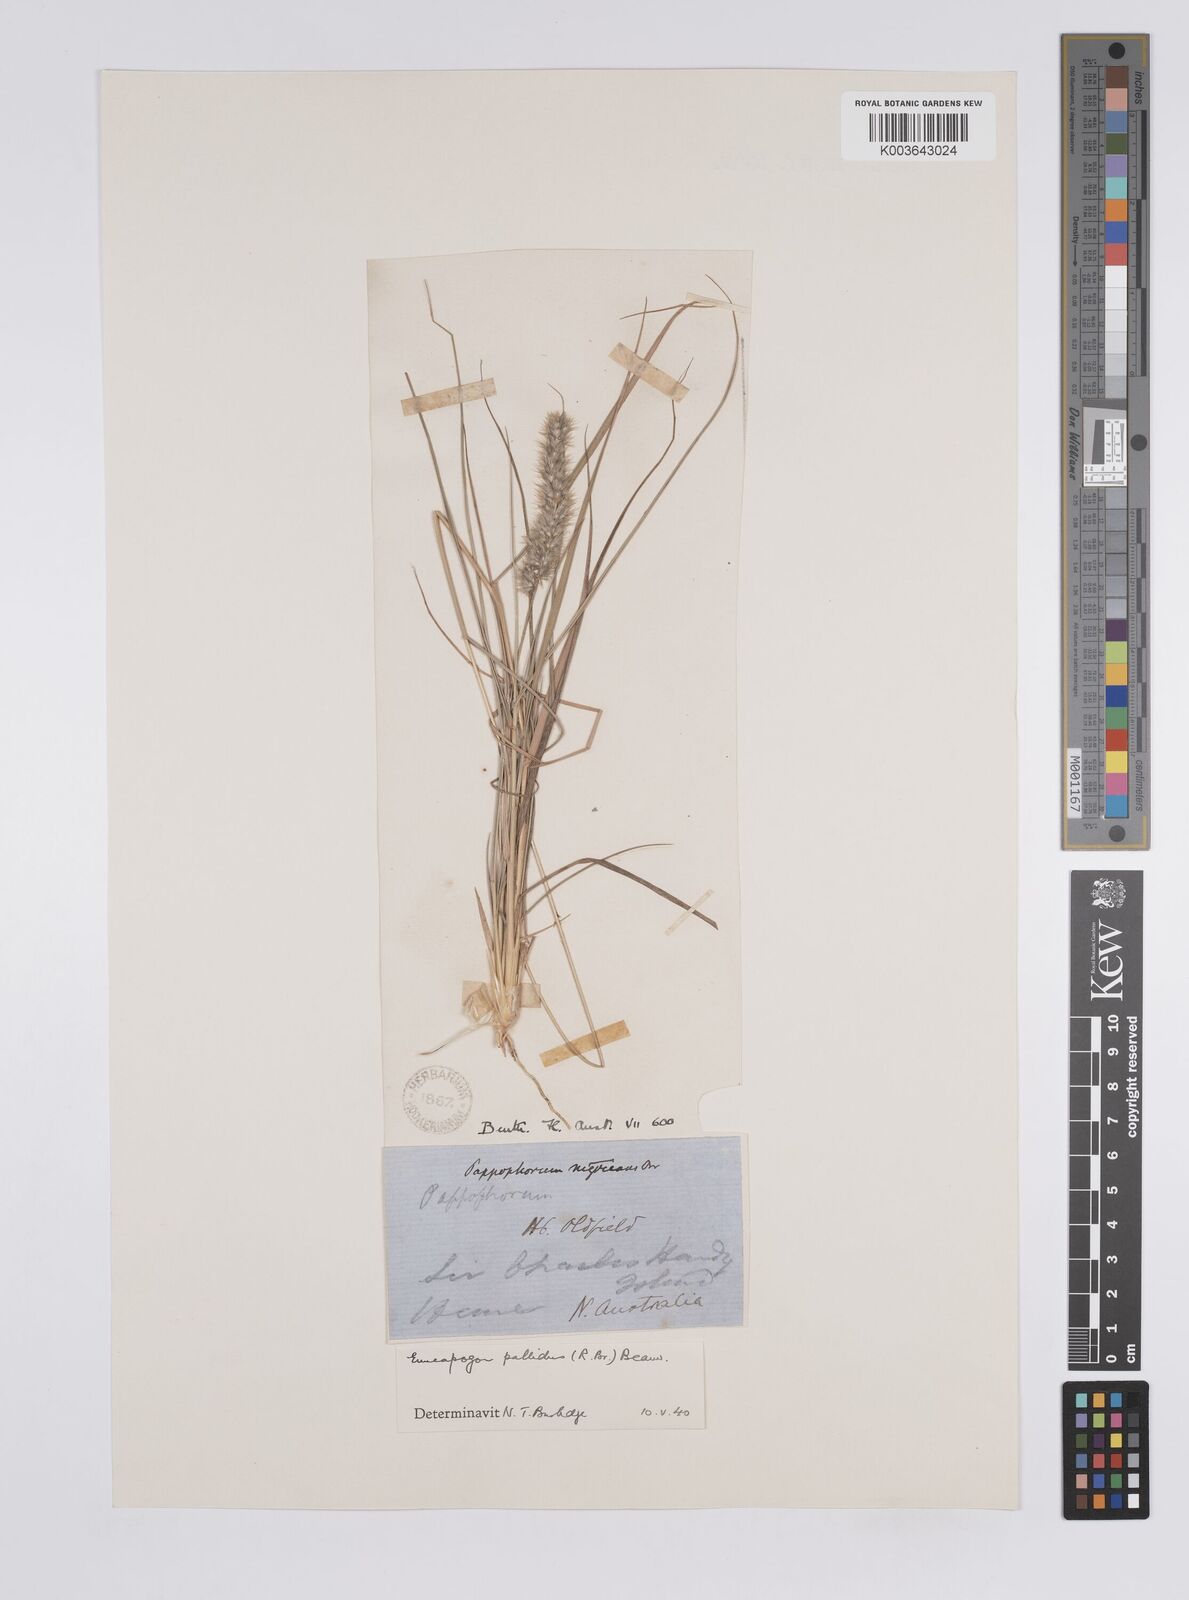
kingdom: Plantae
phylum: Tracheophyta
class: Liliopsida
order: Poales
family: Poaceae
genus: Enneapogon
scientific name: Enneapogon pallidus
